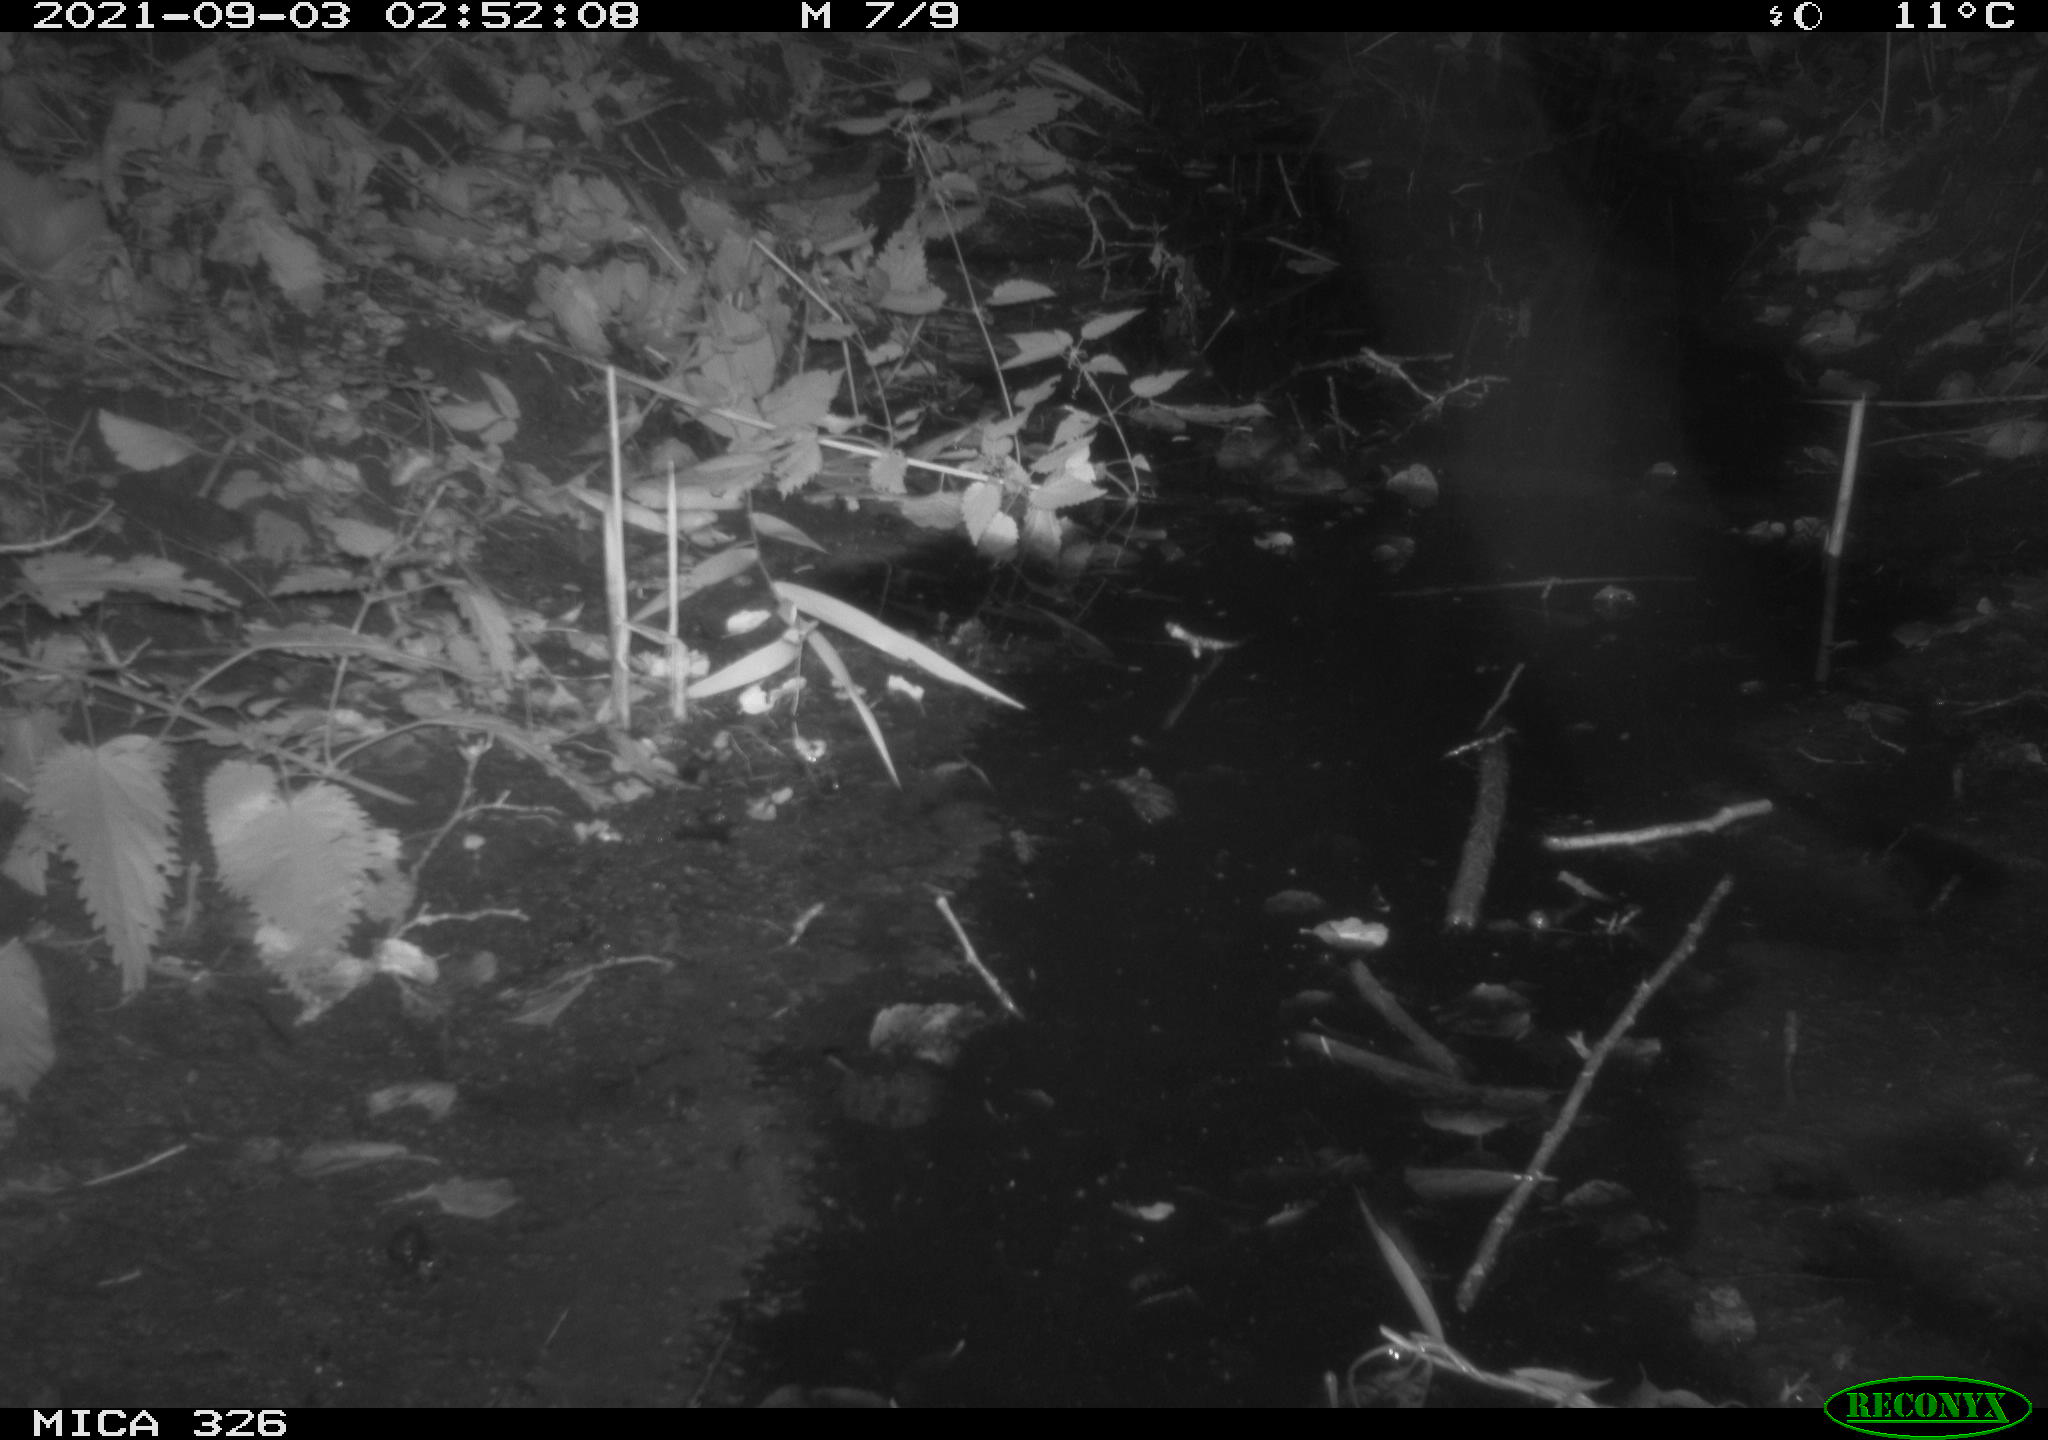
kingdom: Animalia
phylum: Chordata
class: Mammalia
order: Rodentia
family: Cricetidae
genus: Ondatra
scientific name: Ondatra zibethicus
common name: Muskrat
